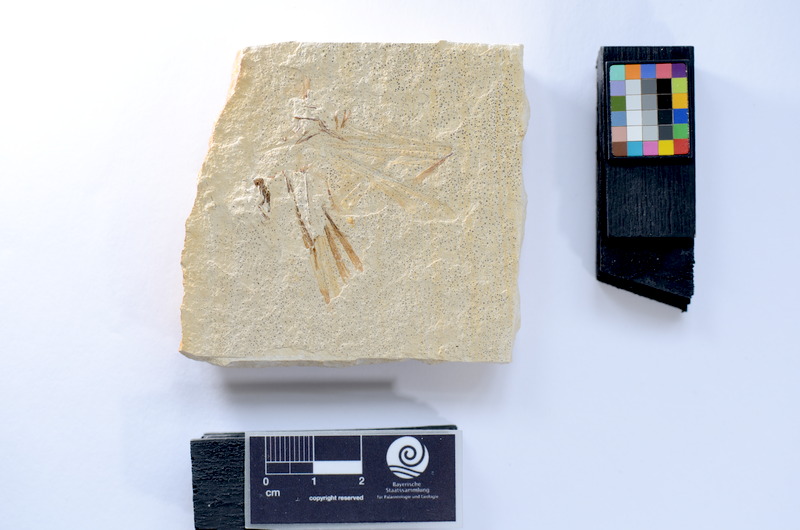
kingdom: Animalia
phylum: Chordata
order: Elopiformes
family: Anaethalionidae
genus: Anaethalion
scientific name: Anaethalion
